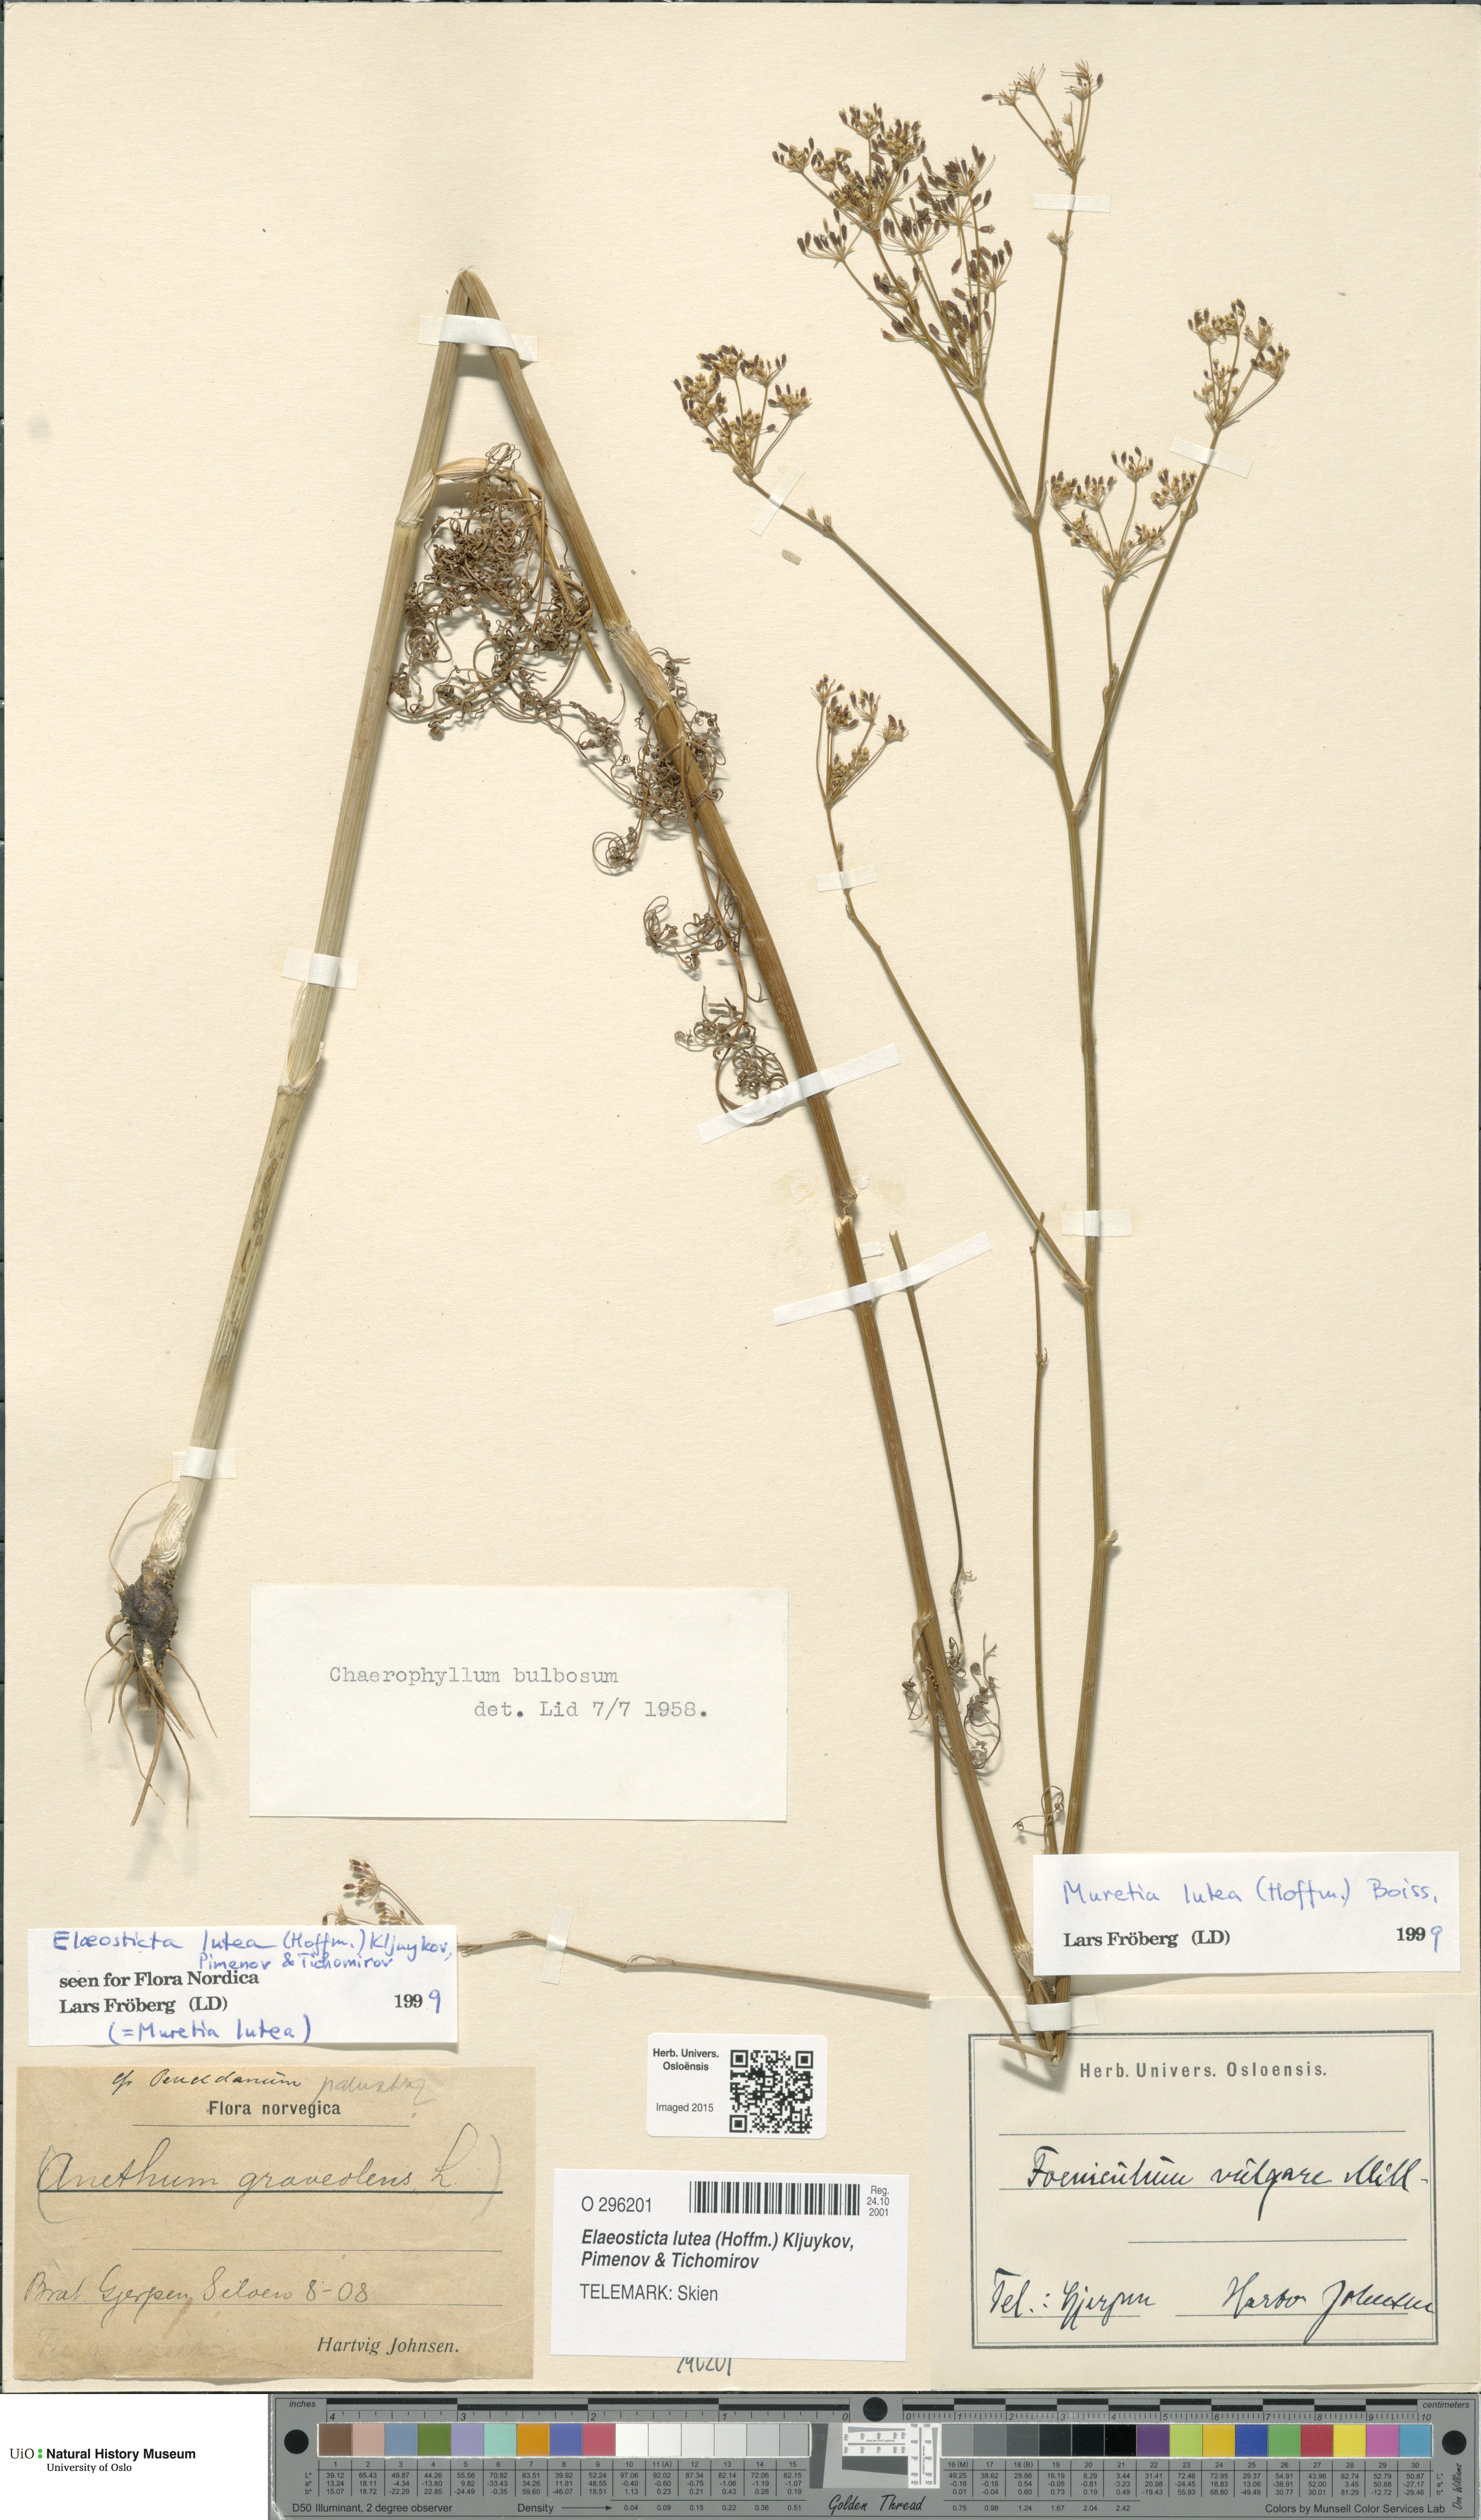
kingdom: Plantae
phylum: Tracheophyta
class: Magnoliopsida
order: Apiales
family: Apiaceae
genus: Elaeosticta
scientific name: Elaeosticta lutea
